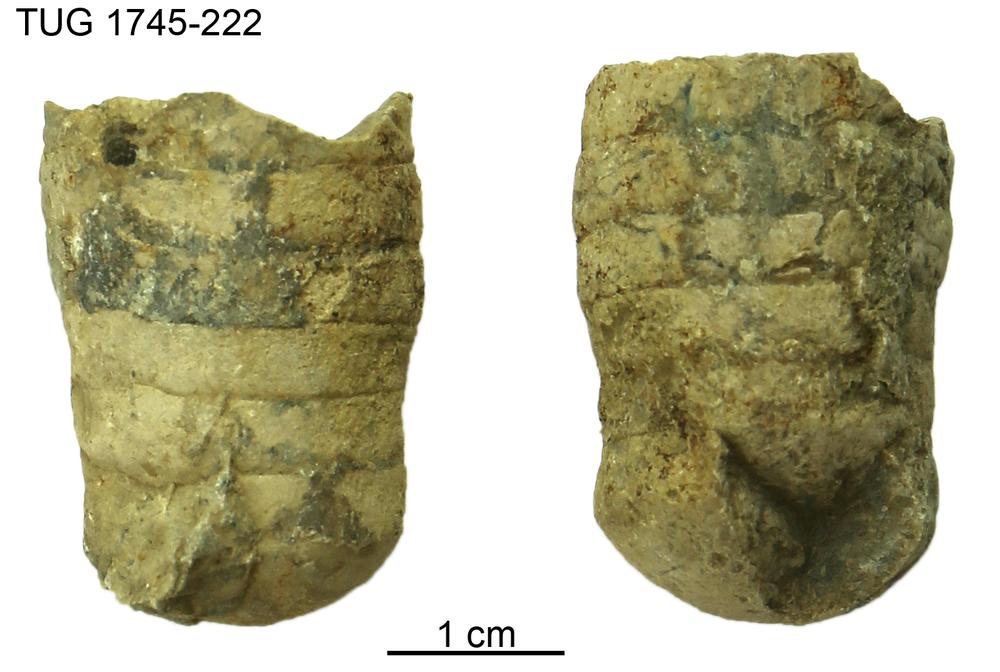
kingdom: Animalia
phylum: Mollusca
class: Cephalopoda
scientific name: Cephalopoda
